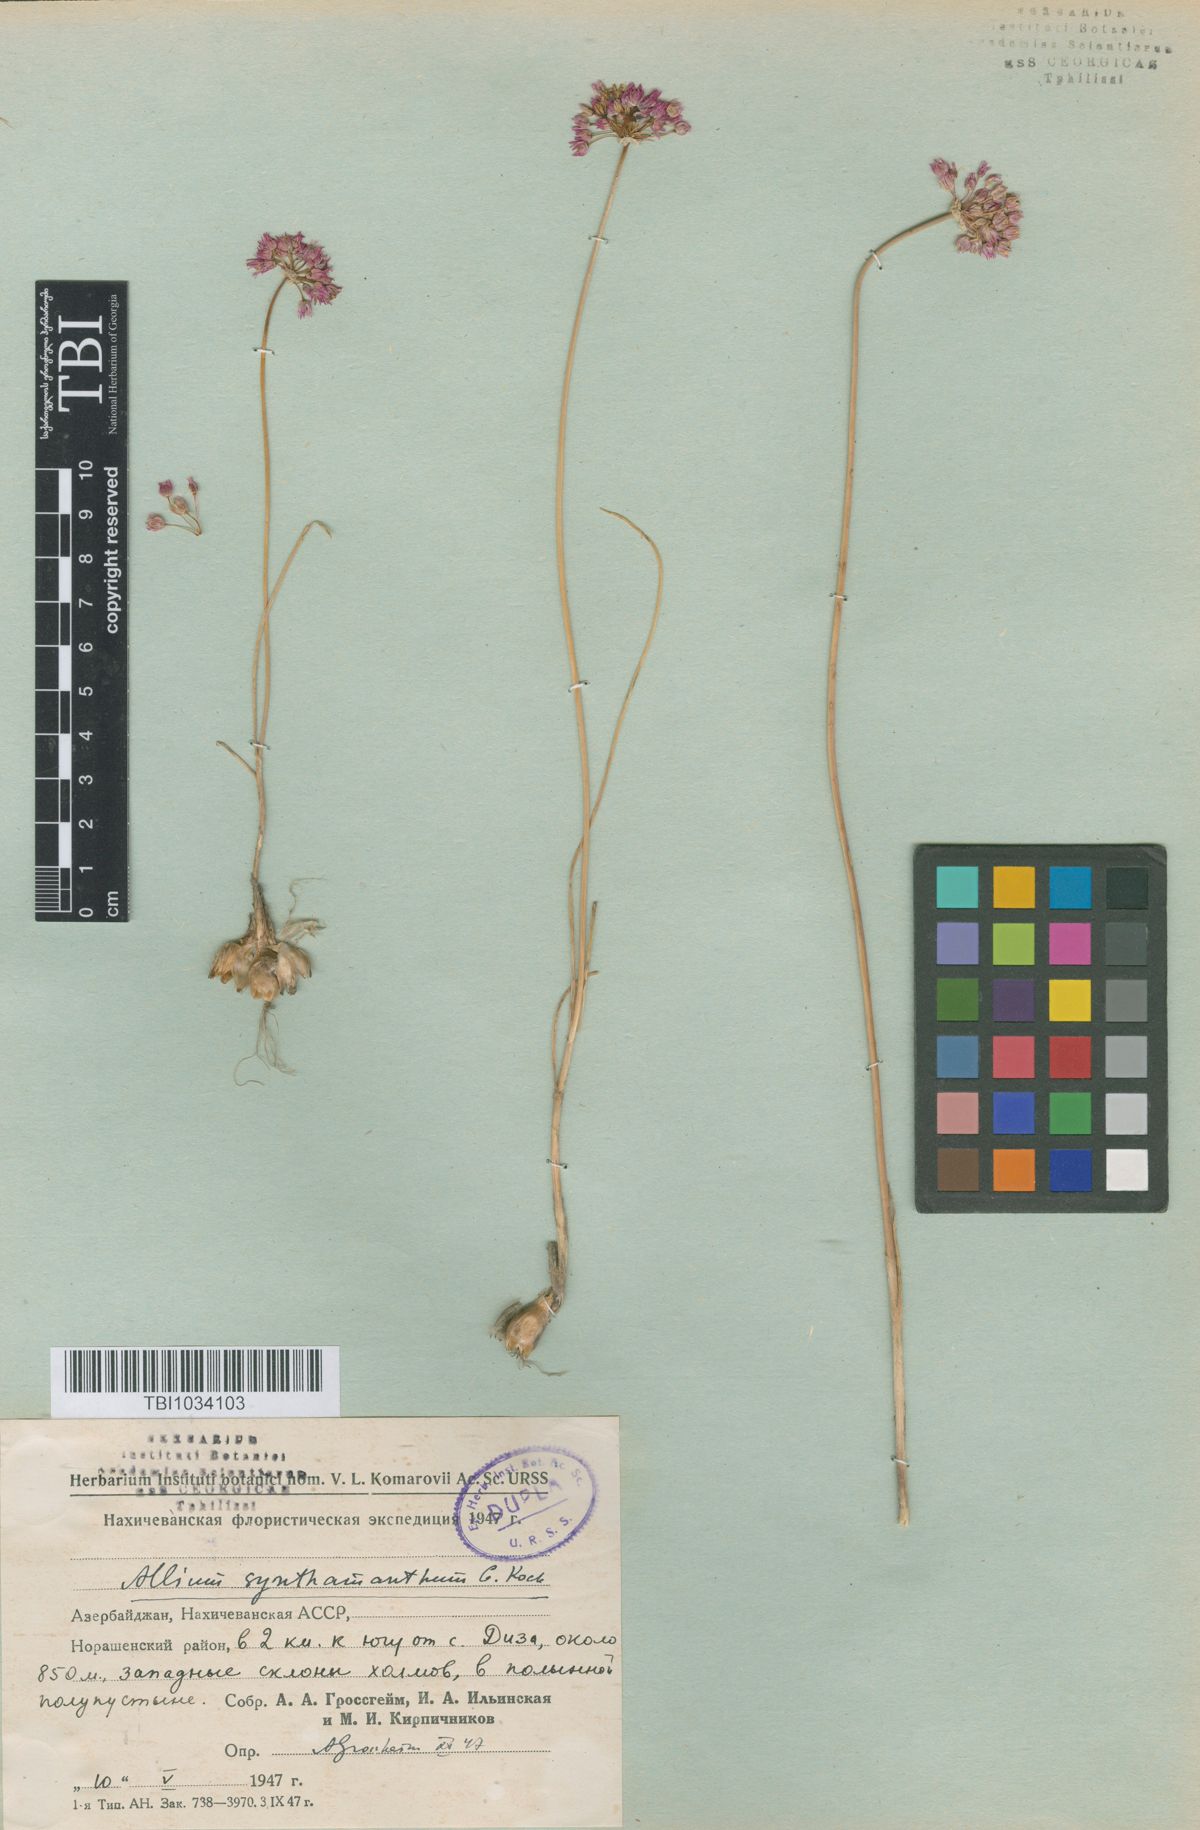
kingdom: Plantae
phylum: Tracheophyta
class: Liliopsida
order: Asparagales
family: Amaryllidaceae
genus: Allium
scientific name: Allium rubellum
